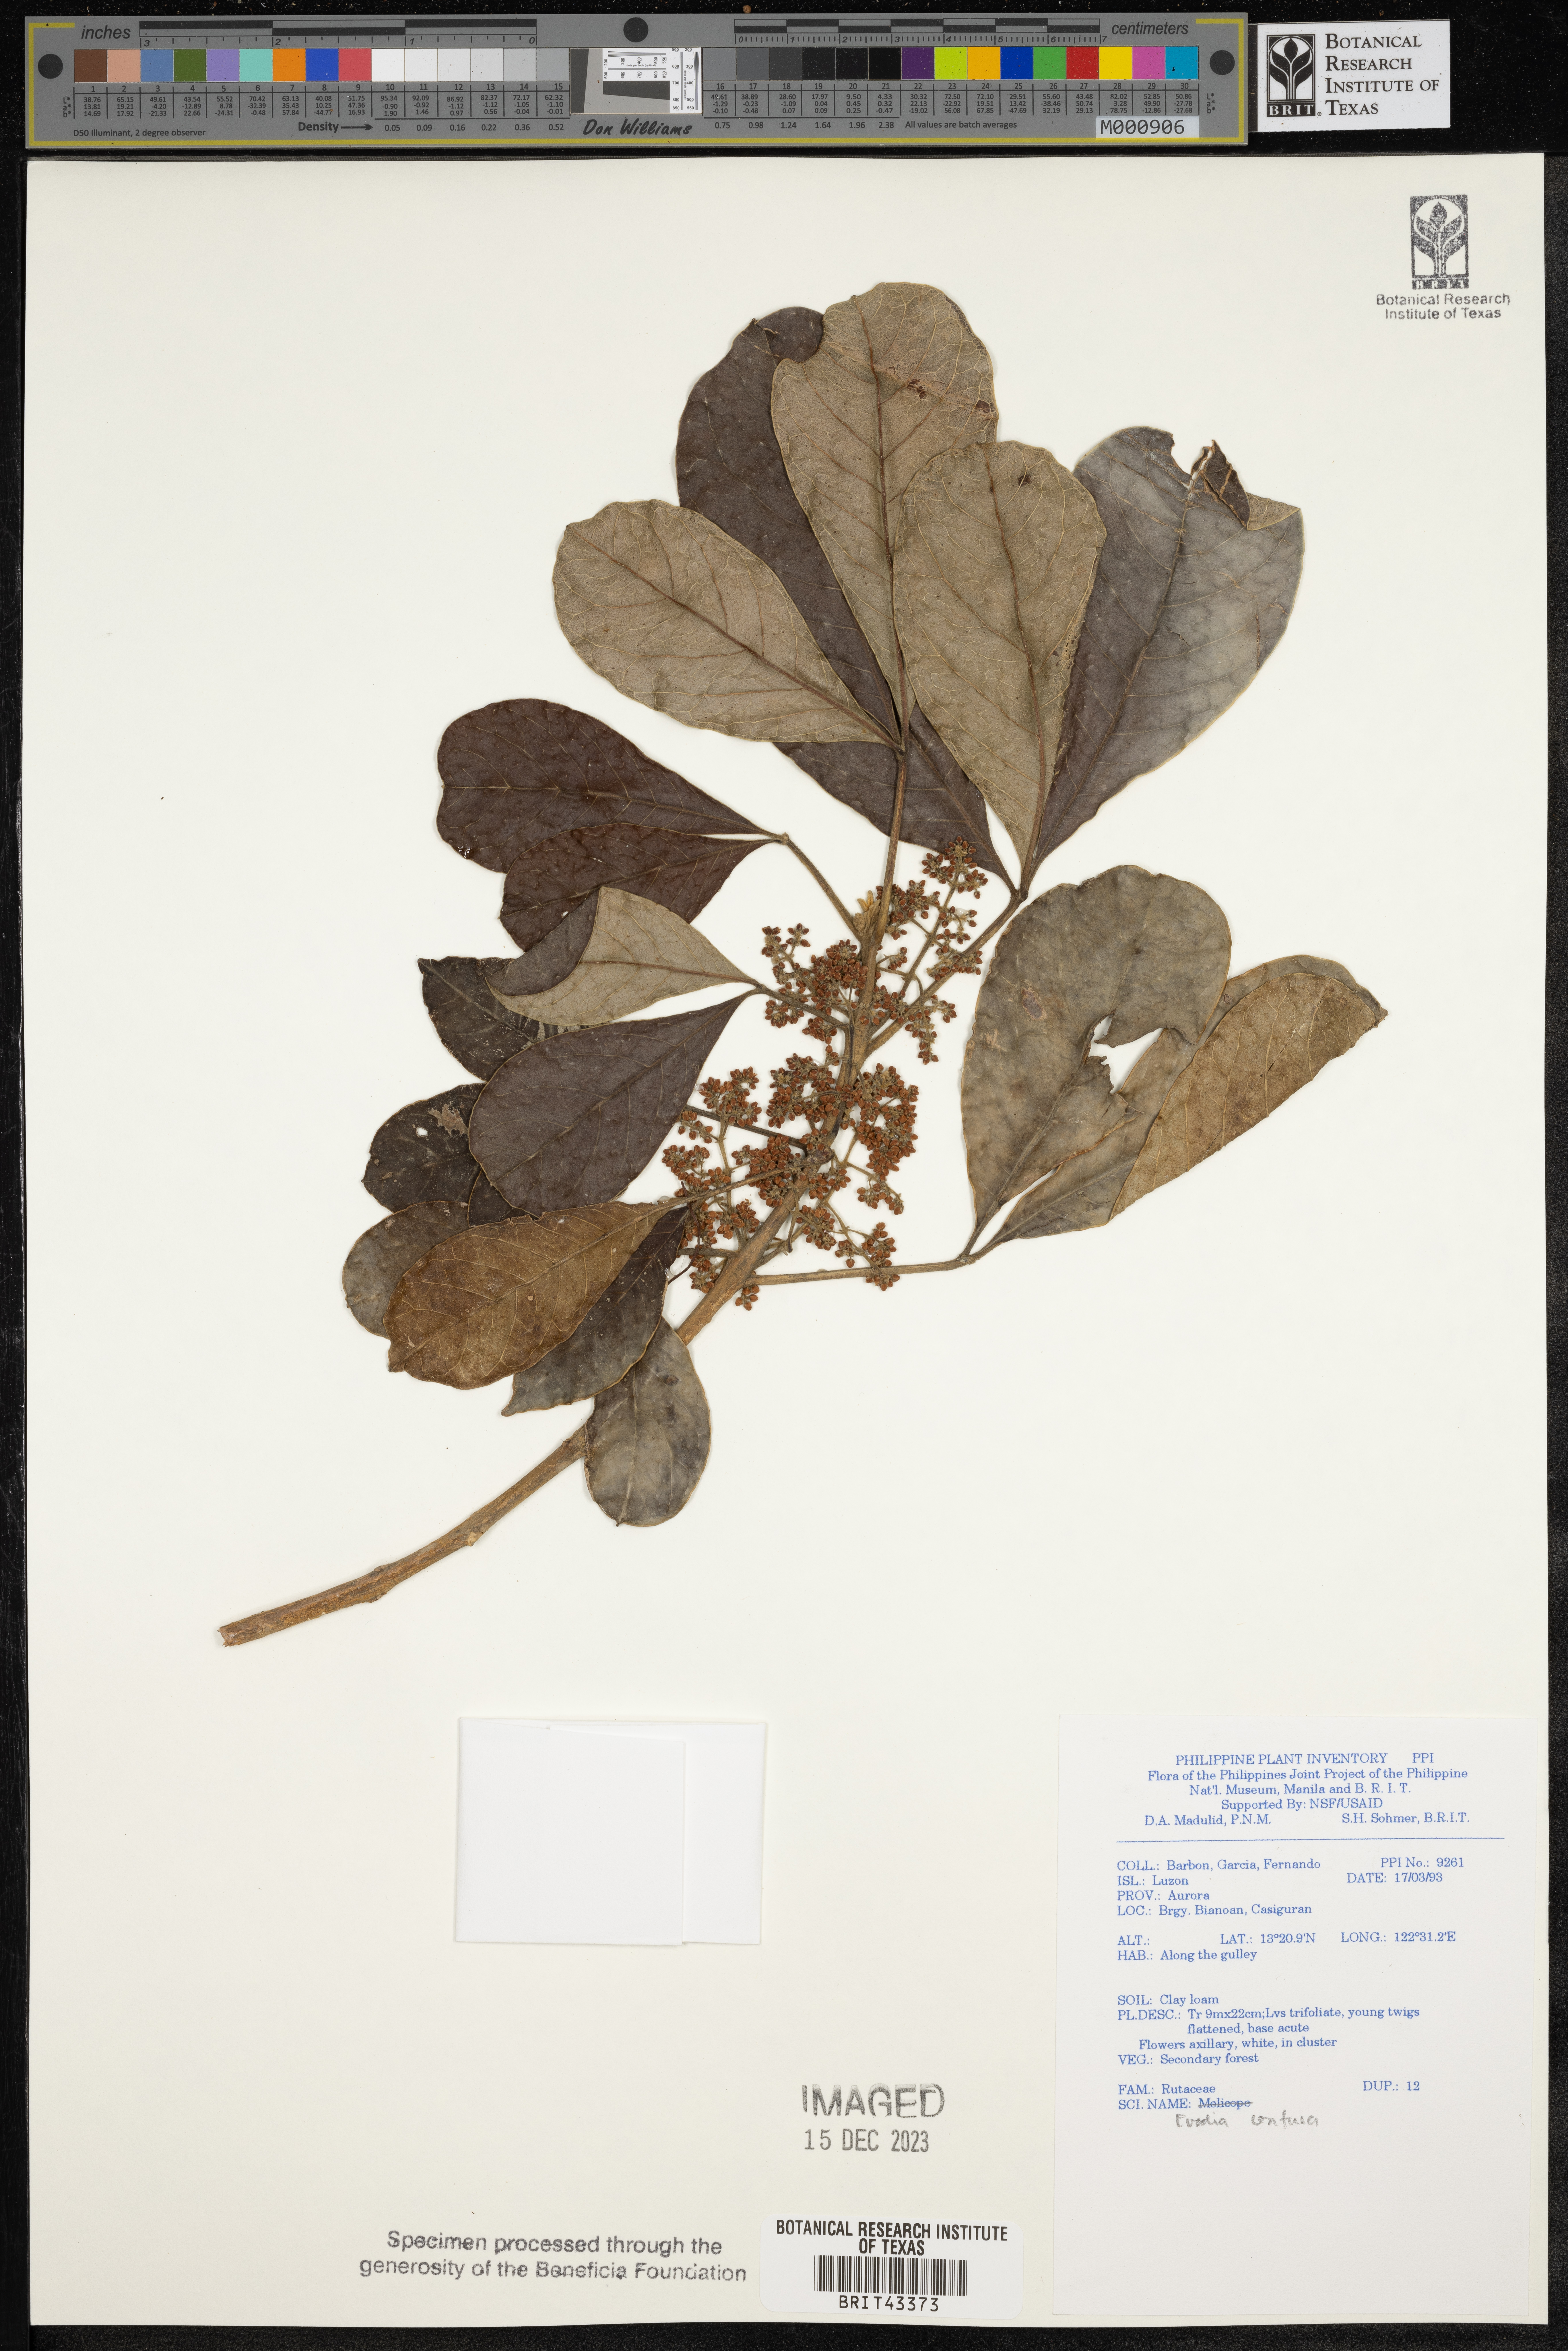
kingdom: Plantae
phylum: Tracheophyta
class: Magnoliopsida
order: Sapindales
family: Rutaceae
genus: Melicope
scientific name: Melicope frutescens
